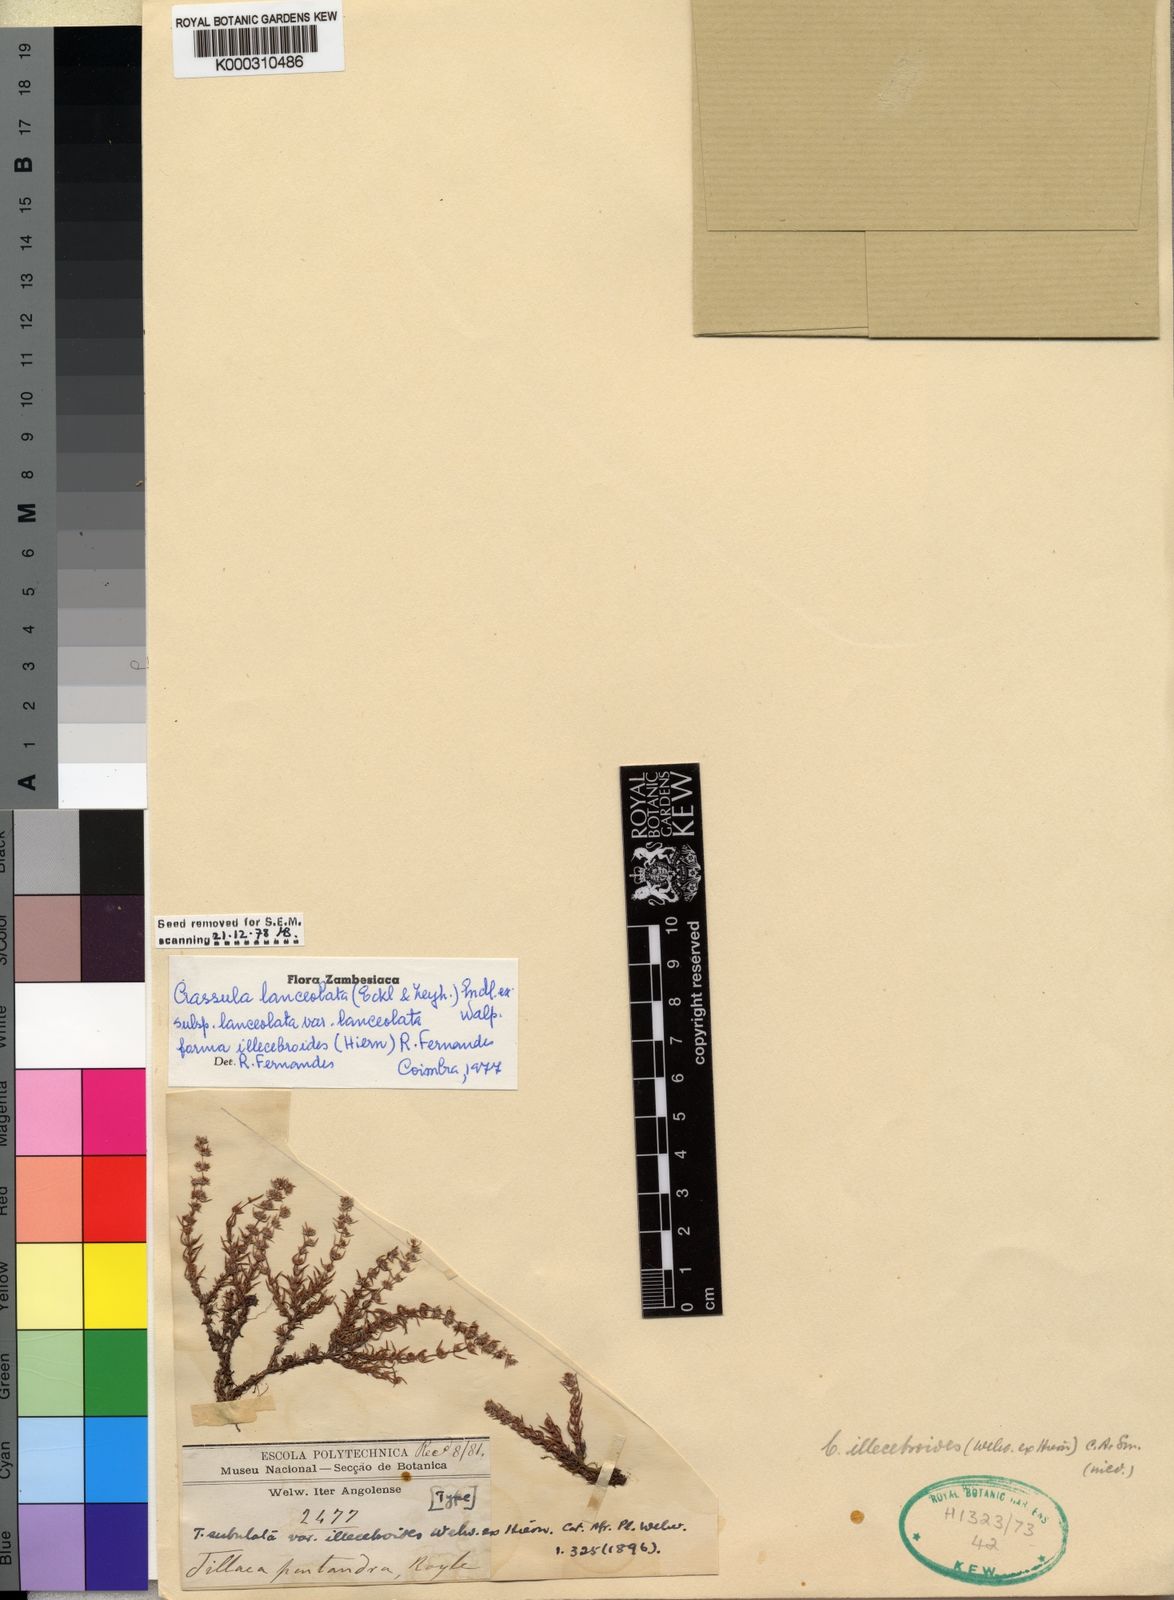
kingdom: Plantae
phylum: Tracheophyta
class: Magnoliopsida
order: Saxifragales
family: Crassulaceae
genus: Crassula
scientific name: Crassula lanceolata
